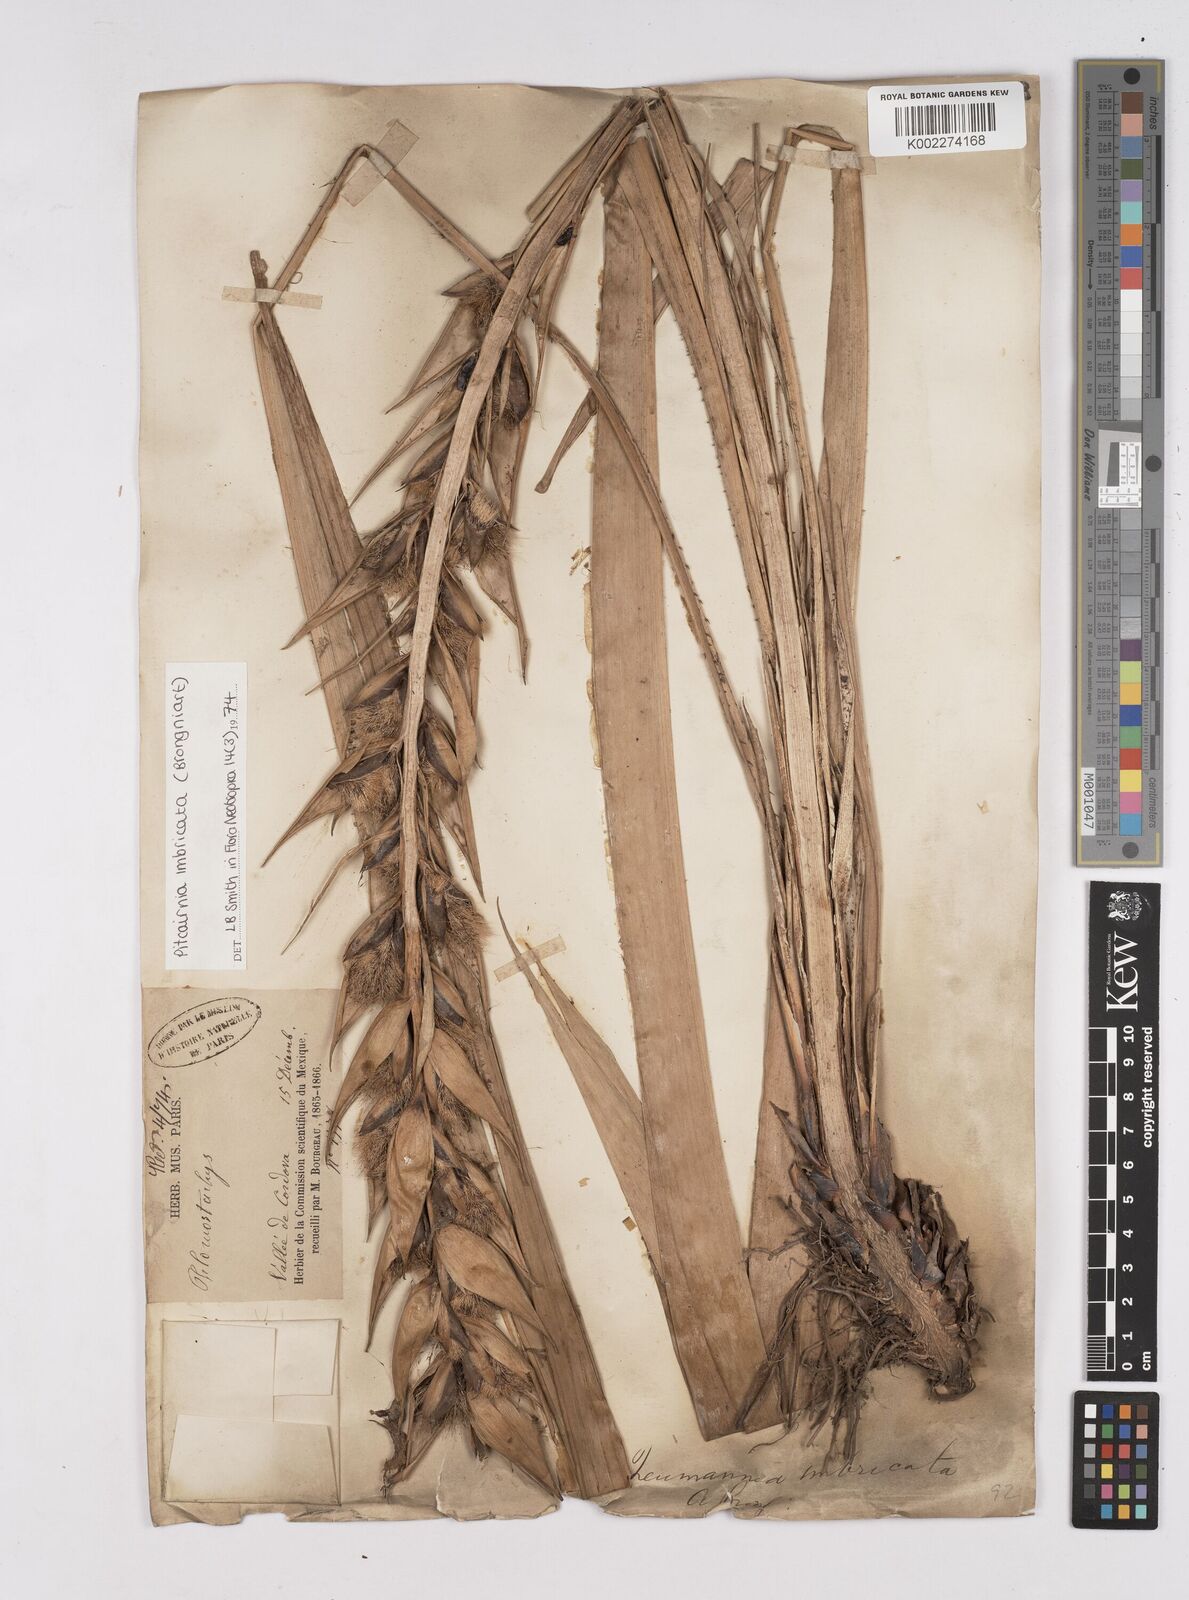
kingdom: Plantae
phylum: Tracheophyta
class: Liliopsida
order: Poales
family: Bromeliaceae
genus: Pitcairnia
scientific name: Pitcairnia imbricata
